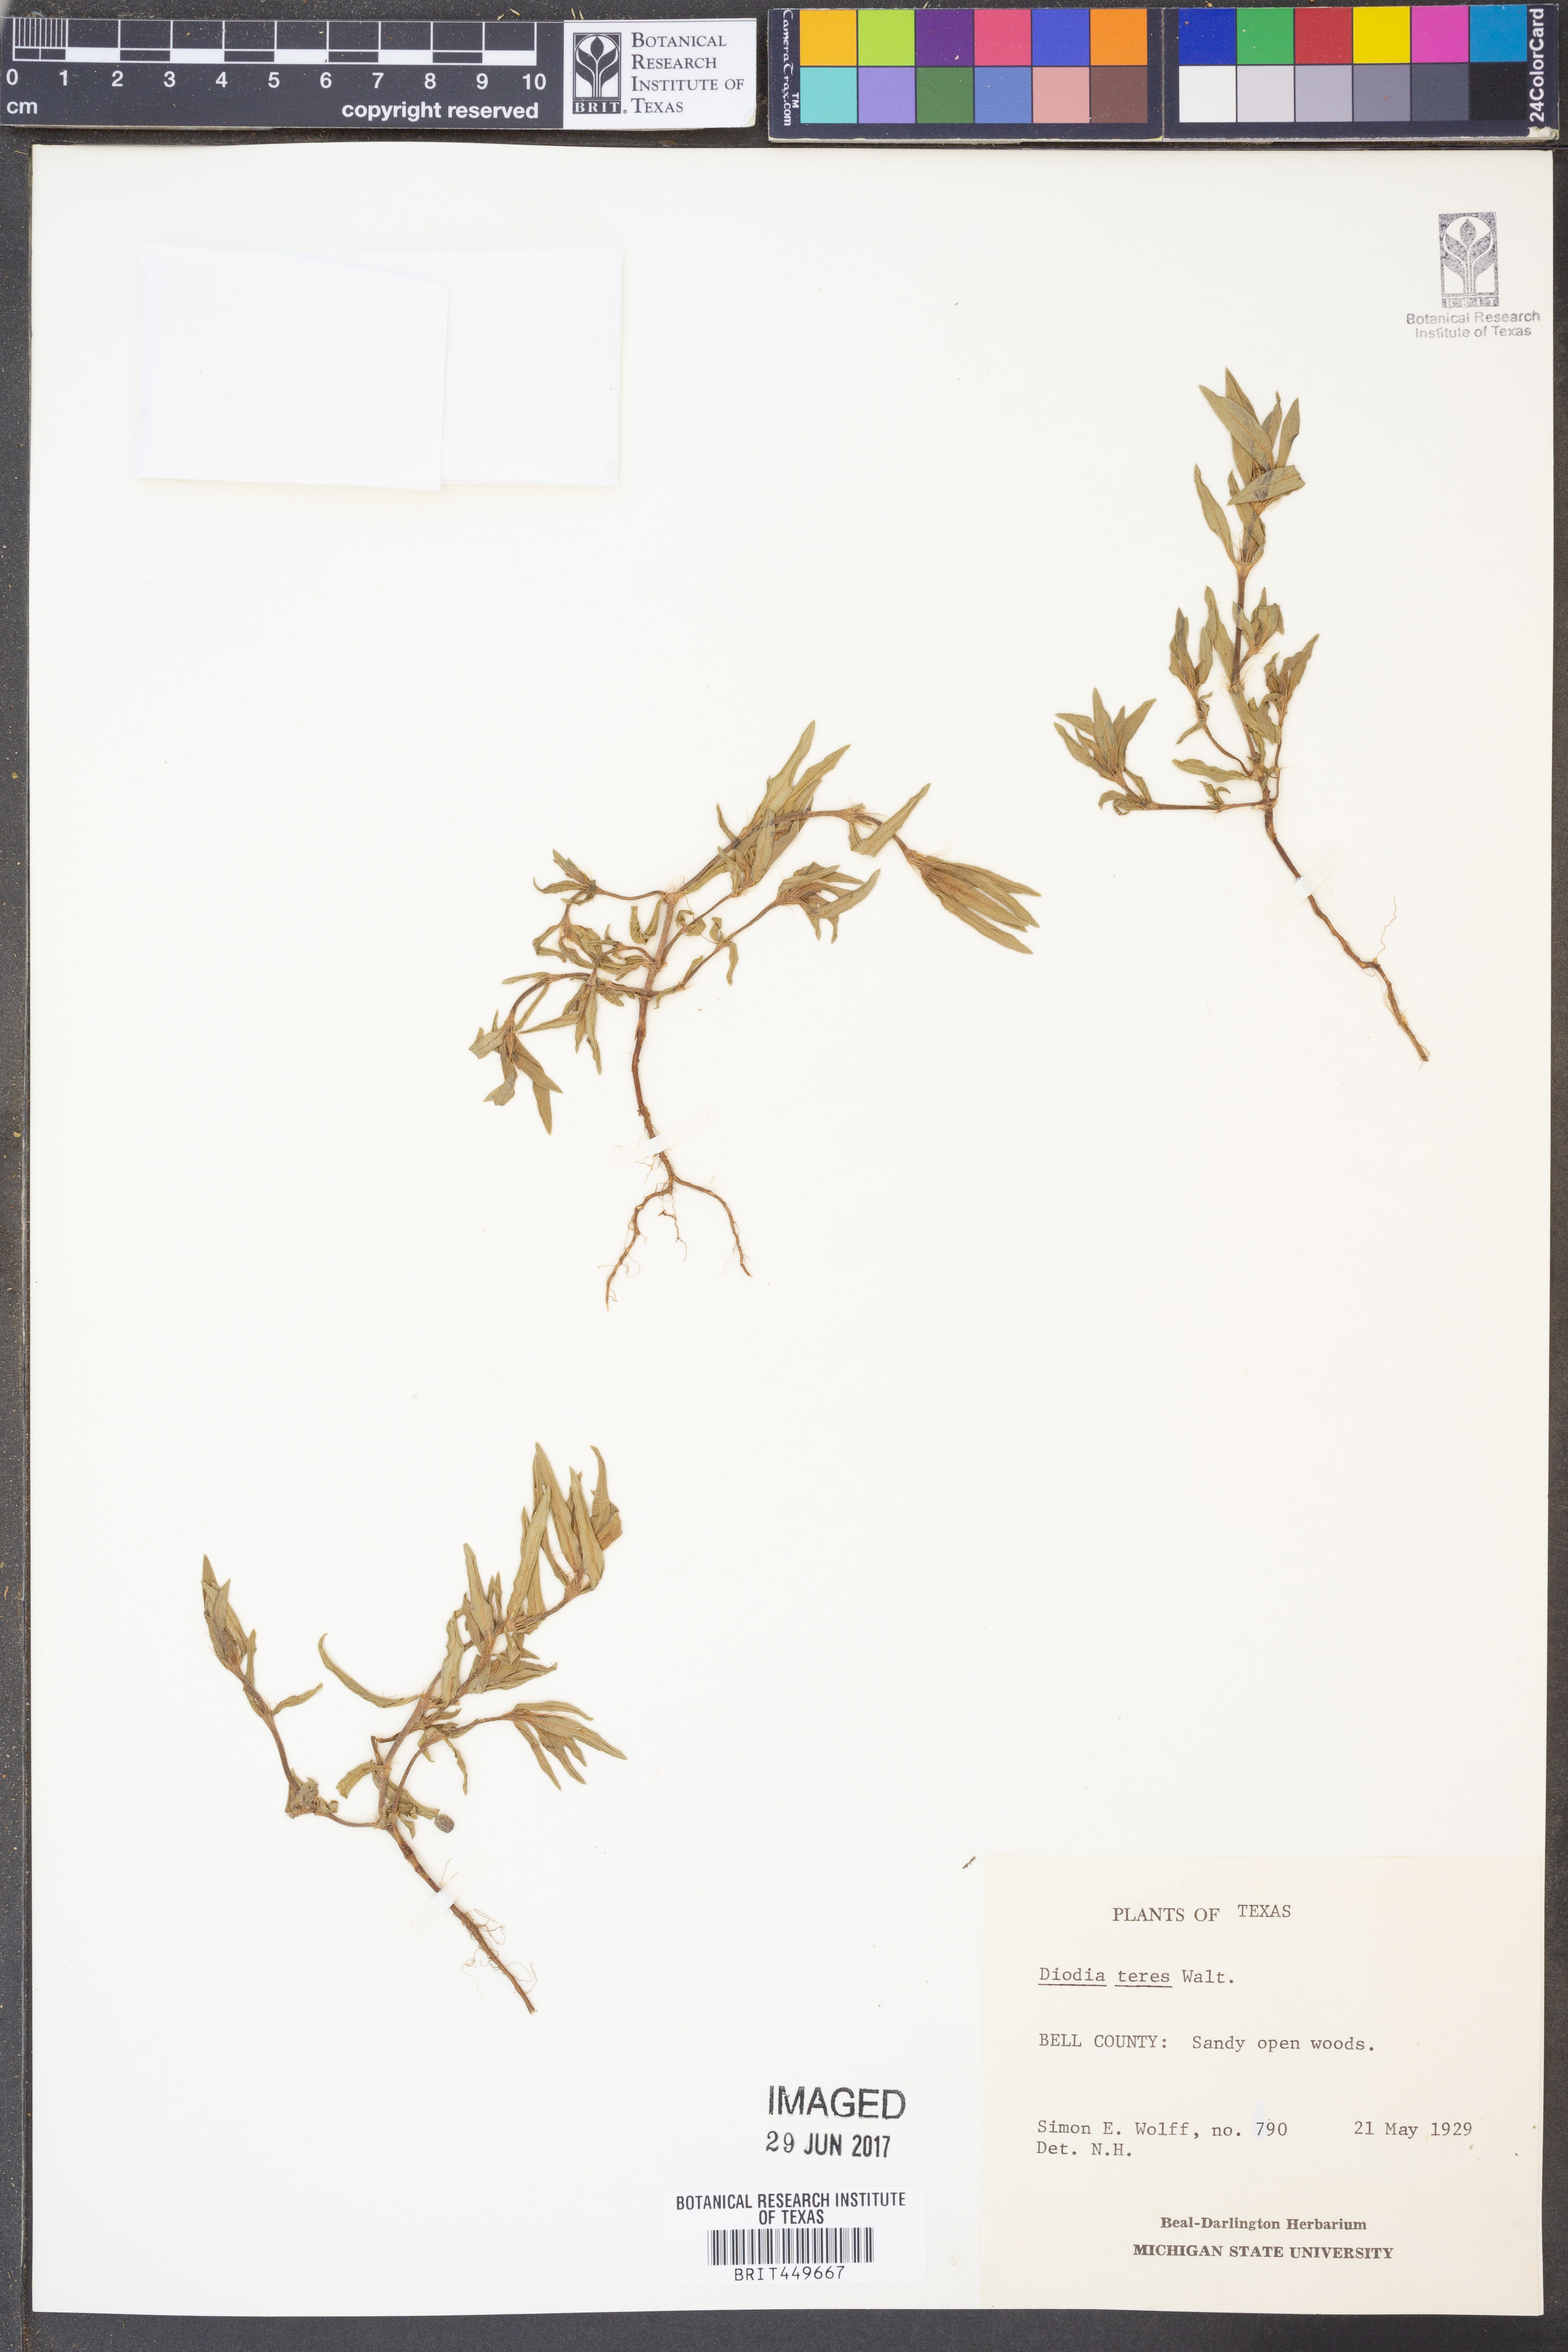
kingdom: Plantae
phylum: Tracheophyta
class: Magnoliopsida
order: Gentianales
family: Rubiaceae
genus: Hexasepalum
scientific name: Hexasepalum teres
